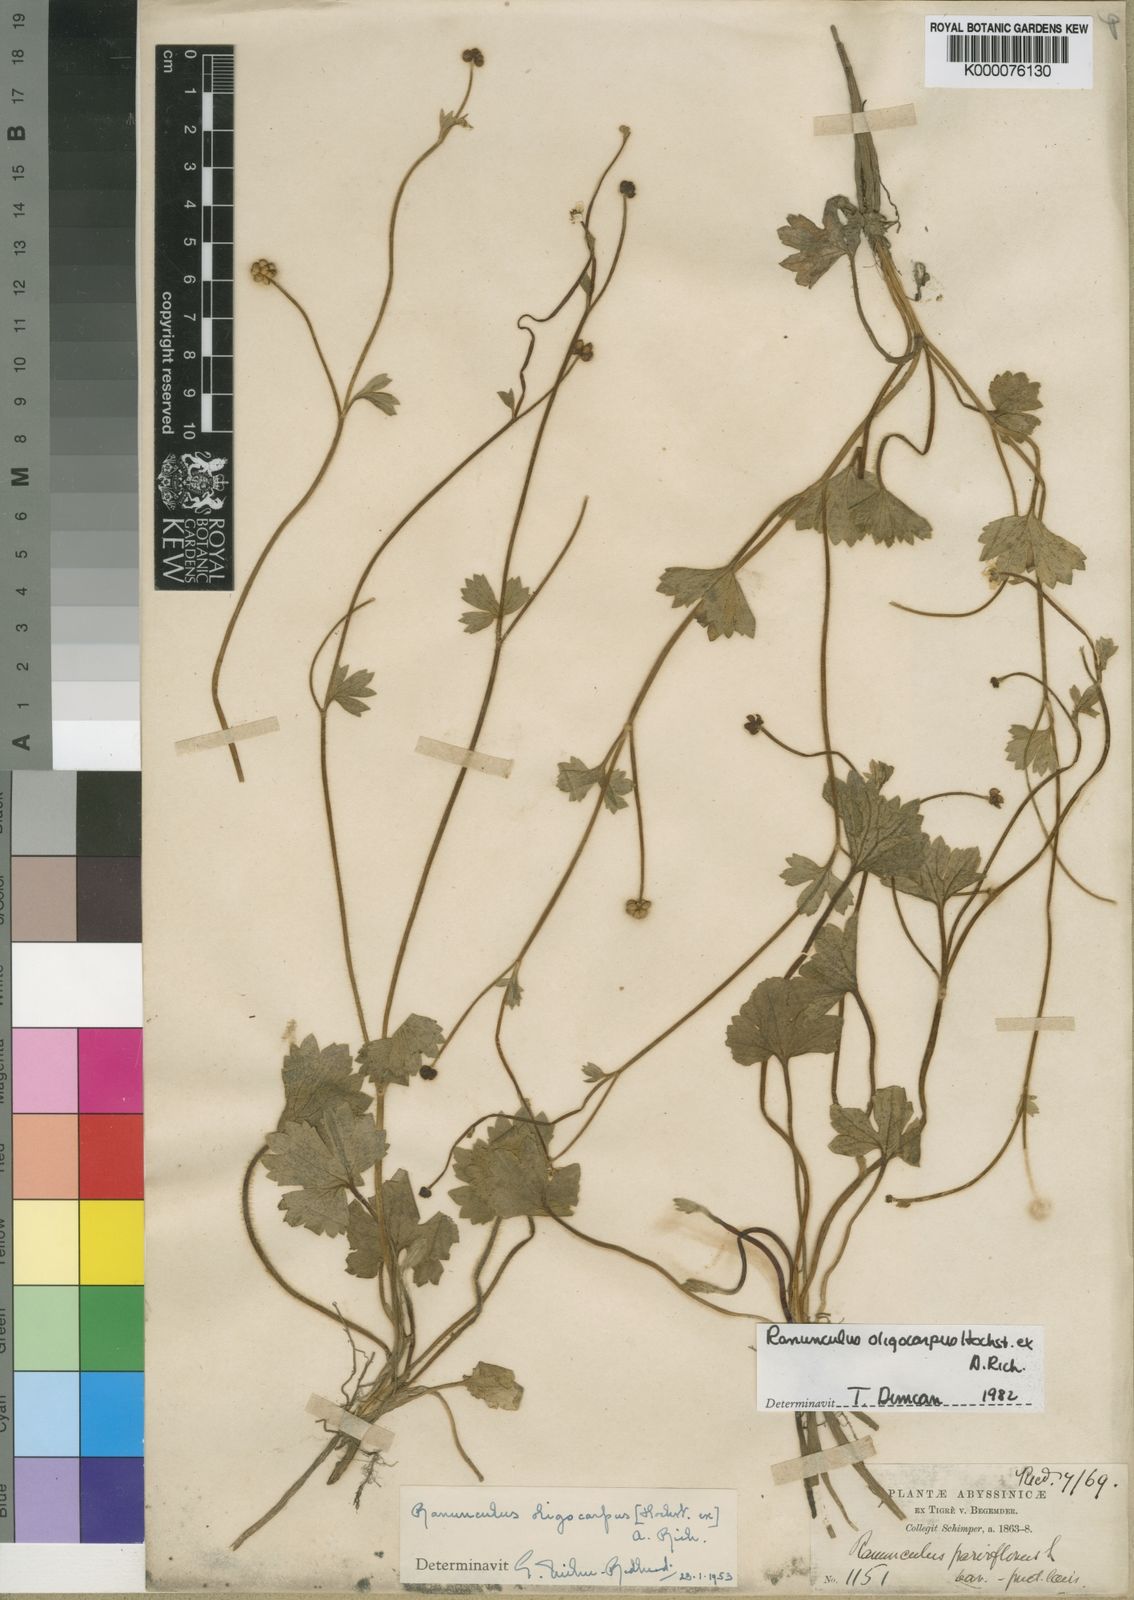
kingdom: Plantae
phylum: Tracheophyta
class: Magnoliopsida
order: Ranunculales
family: Ranunculaceae
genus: Ranunculus
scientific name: Ranunculus
